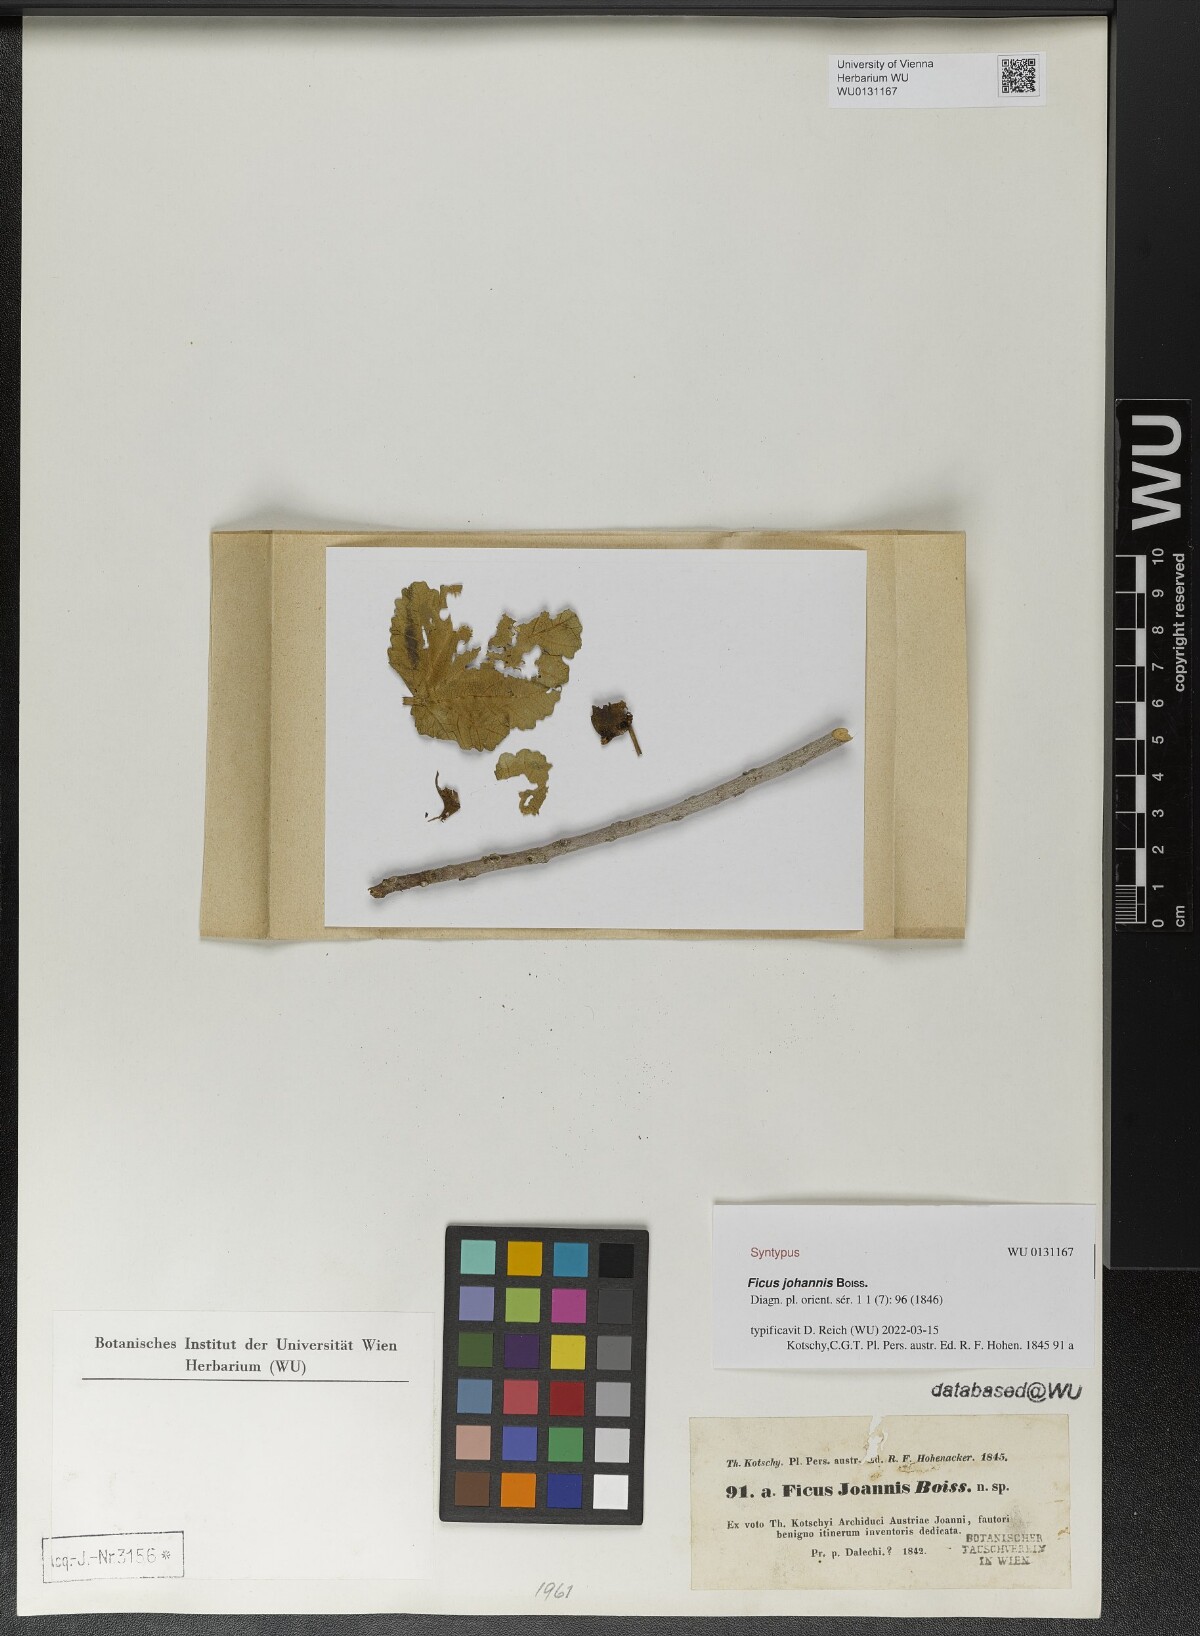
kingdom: Plantae
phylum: Tracheophyta
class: Magnoliopsida
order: Rosales
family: Moraceae
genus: Ficus
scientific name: Ficus johannis
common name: Mountain fig
